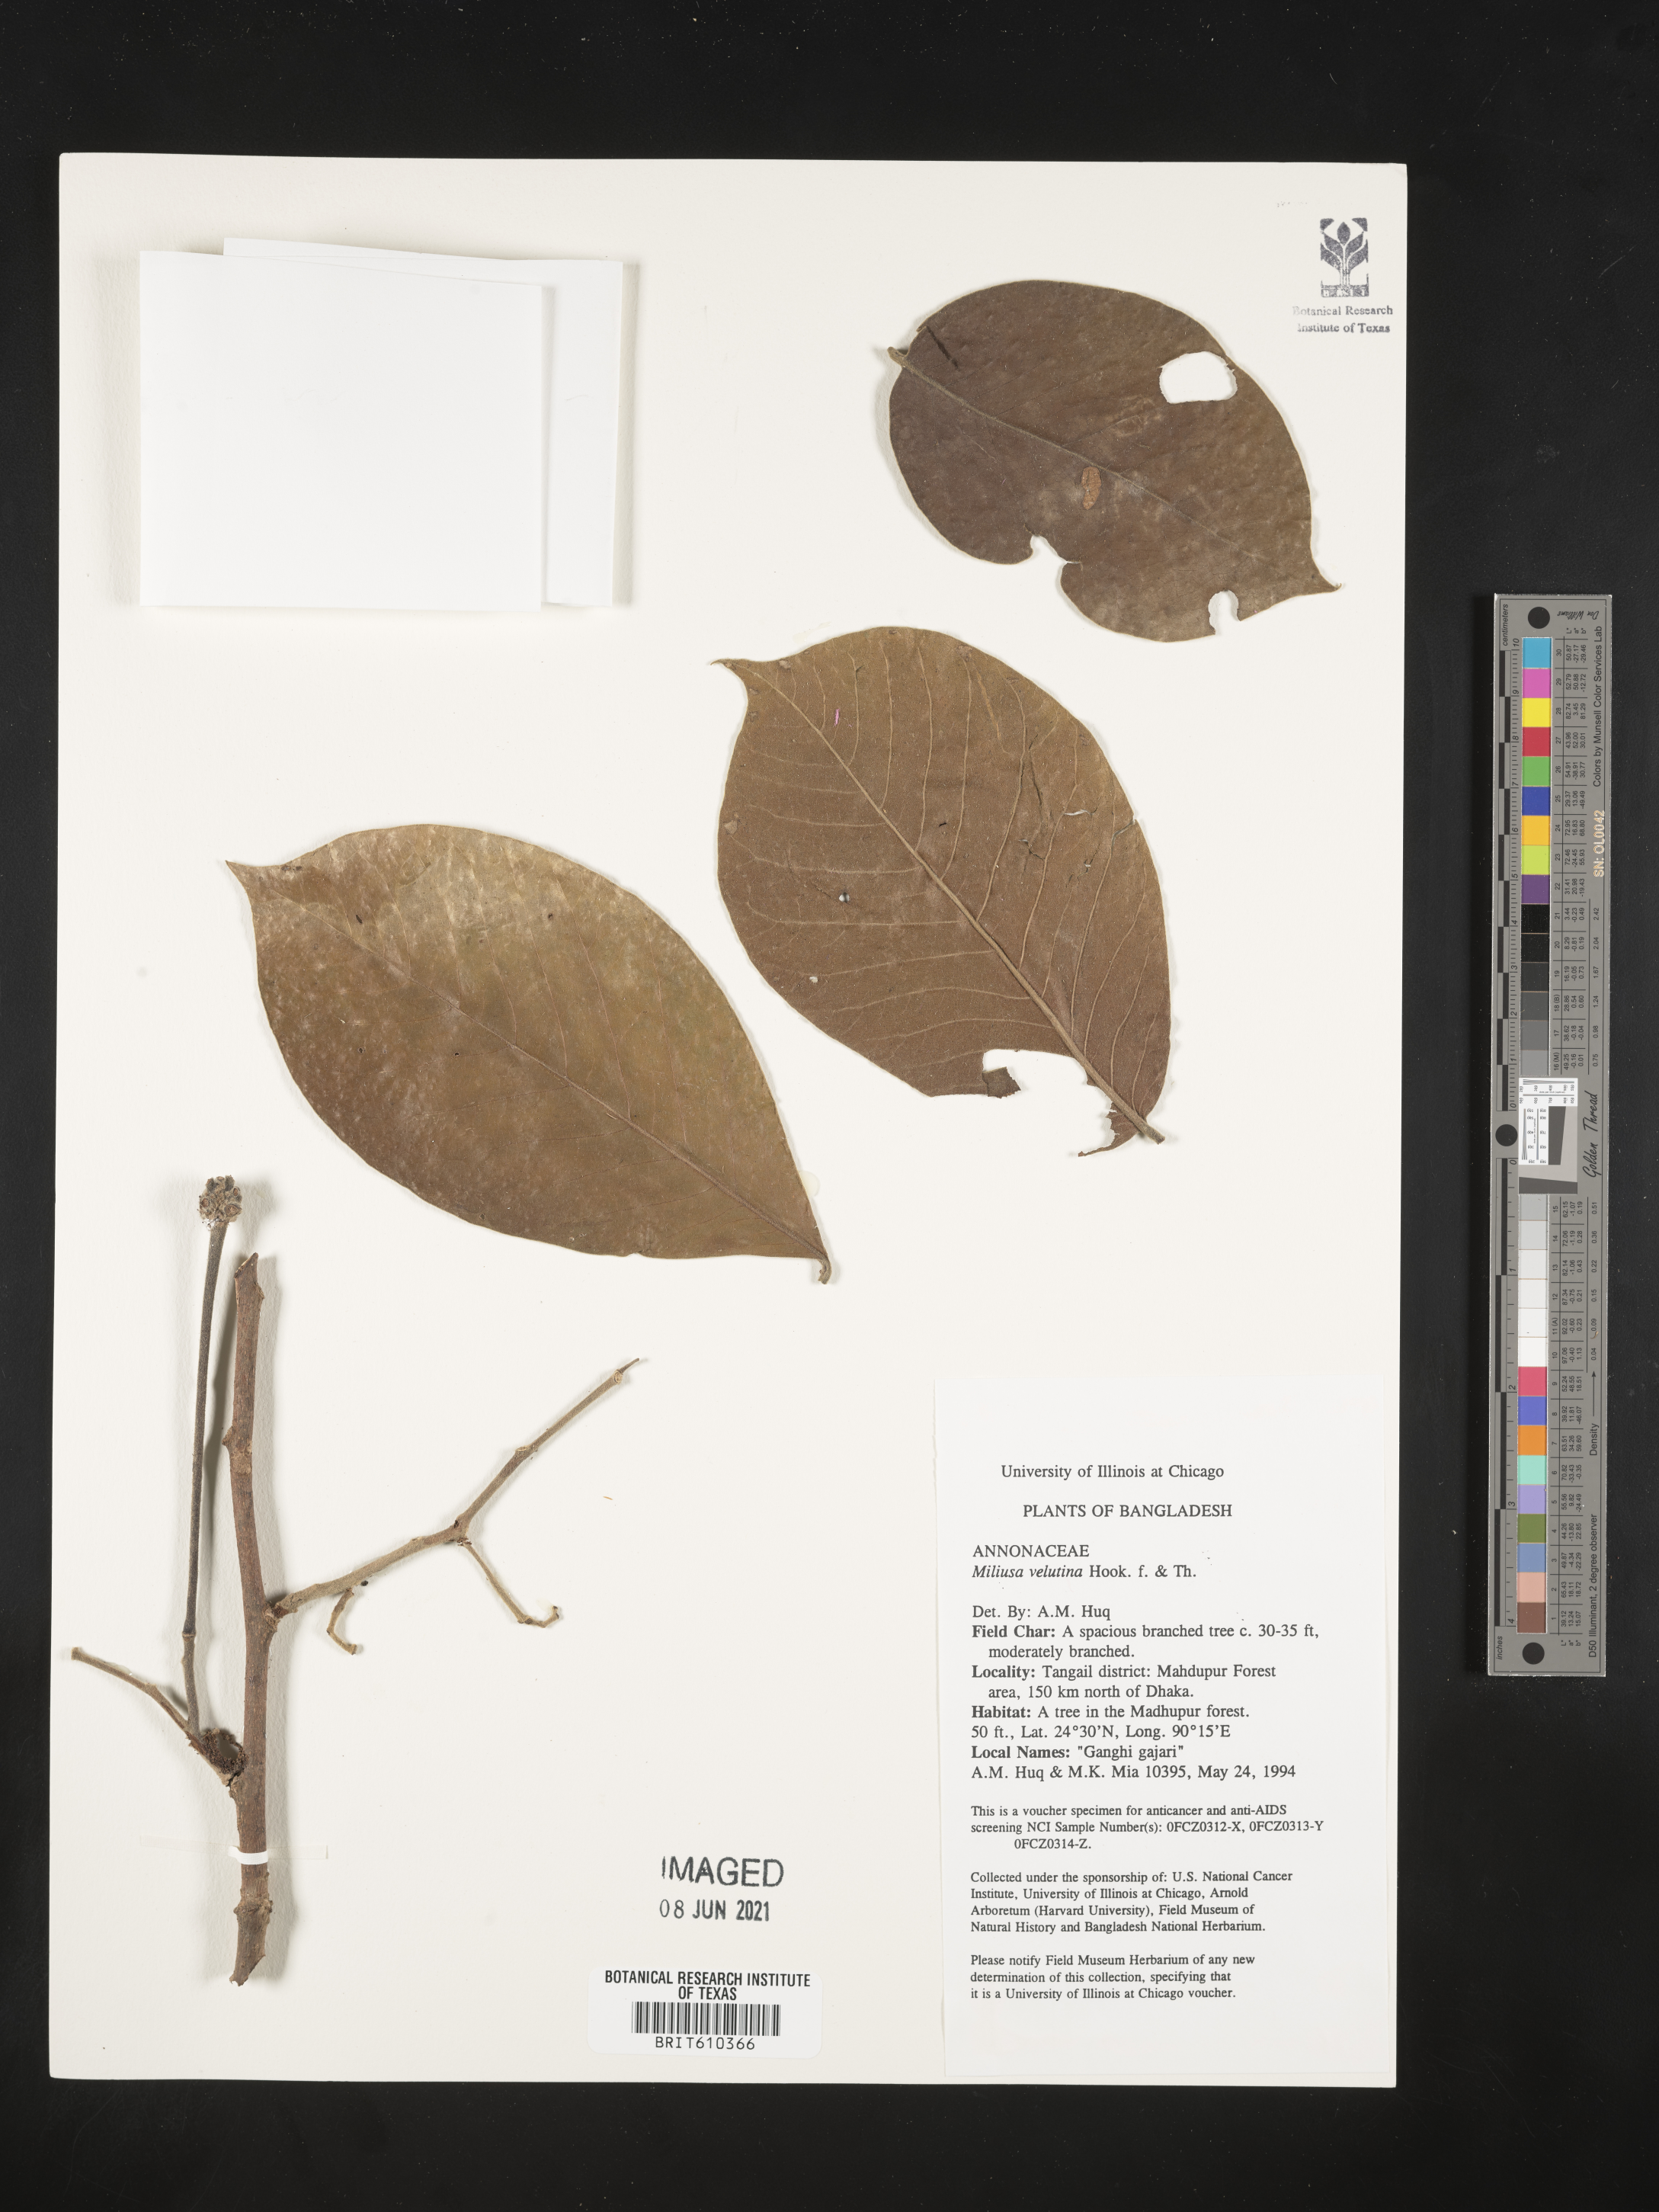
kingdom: Plantae
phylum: Tracheophyta
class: Magnoliopsida
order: Magnoliales
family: Annonaceae
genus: Miliusa
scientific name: Miliusa velutina
